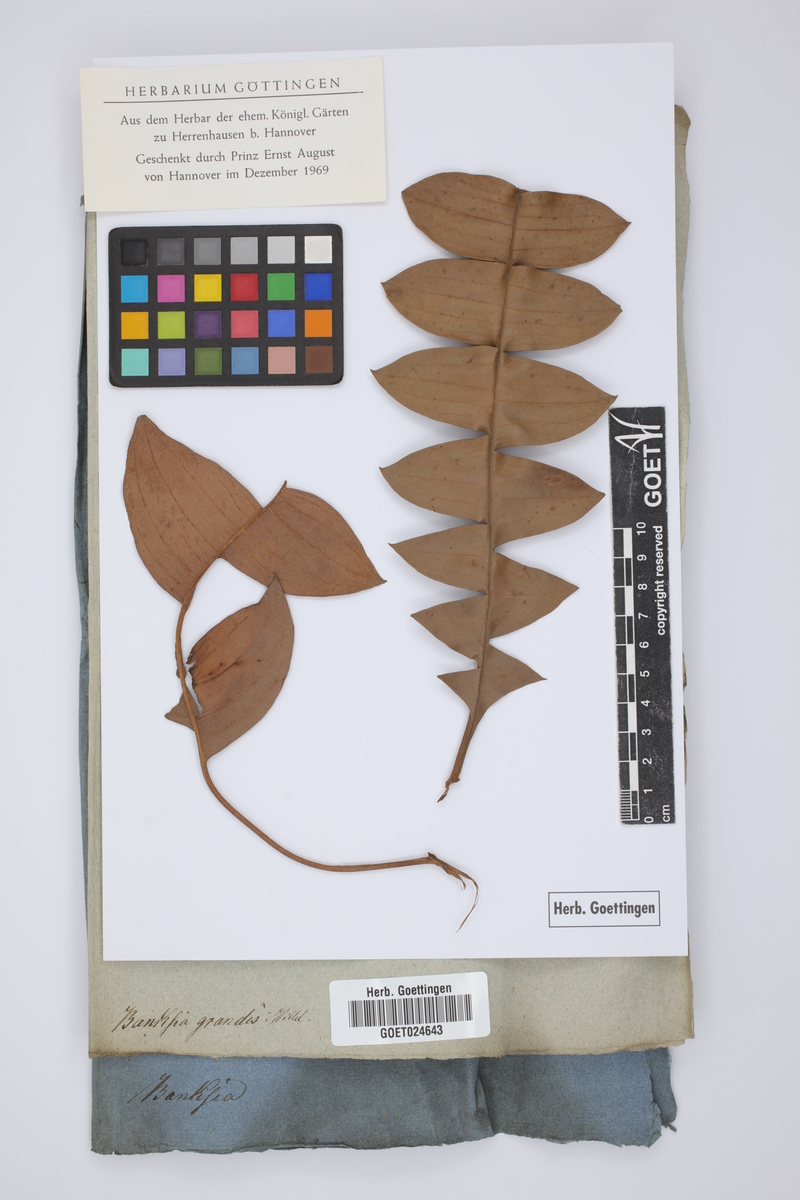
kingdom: Plantae
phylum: Tracheophyta
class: Magnoliopsida
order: Proteales
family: Proteaceae
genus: Banksia
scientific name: Banksia grandis
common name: Giant banksia
